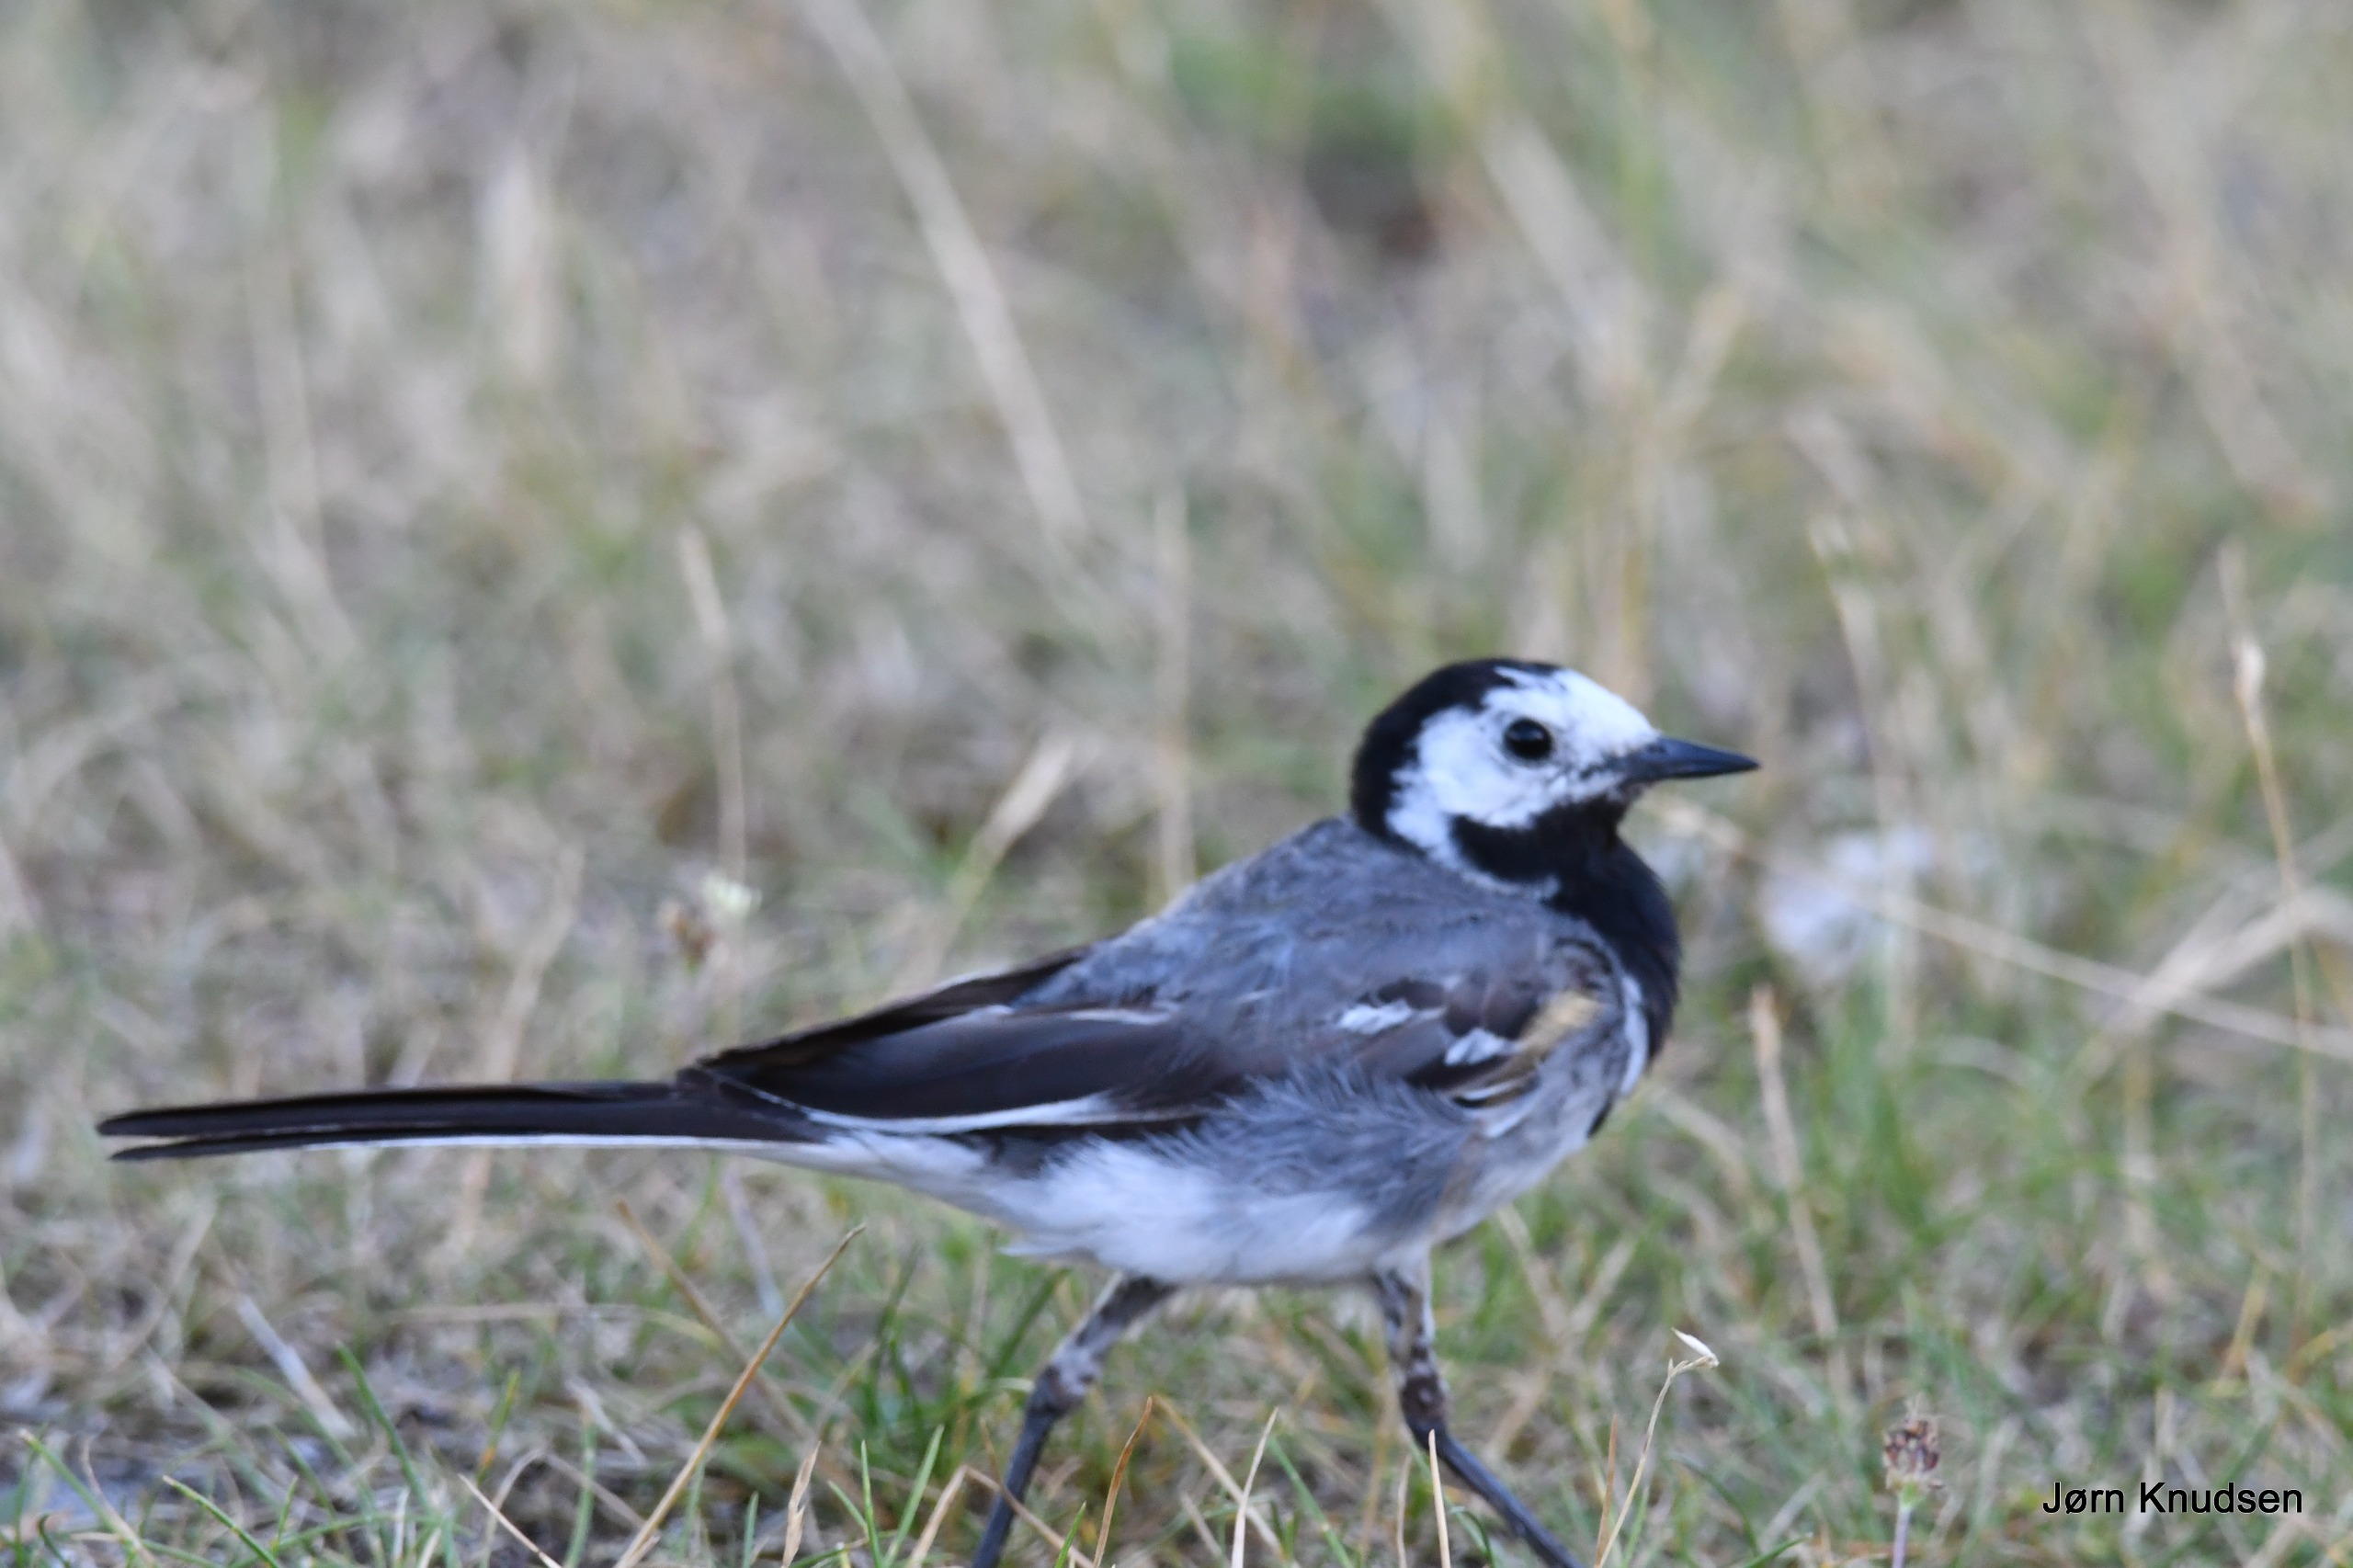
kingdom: Animalia
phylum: Chordata
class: Aves
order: Passeriformes
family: Motacillidae
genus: Motacilla
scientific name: Motacilla alba
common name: Hvid vipstjert
